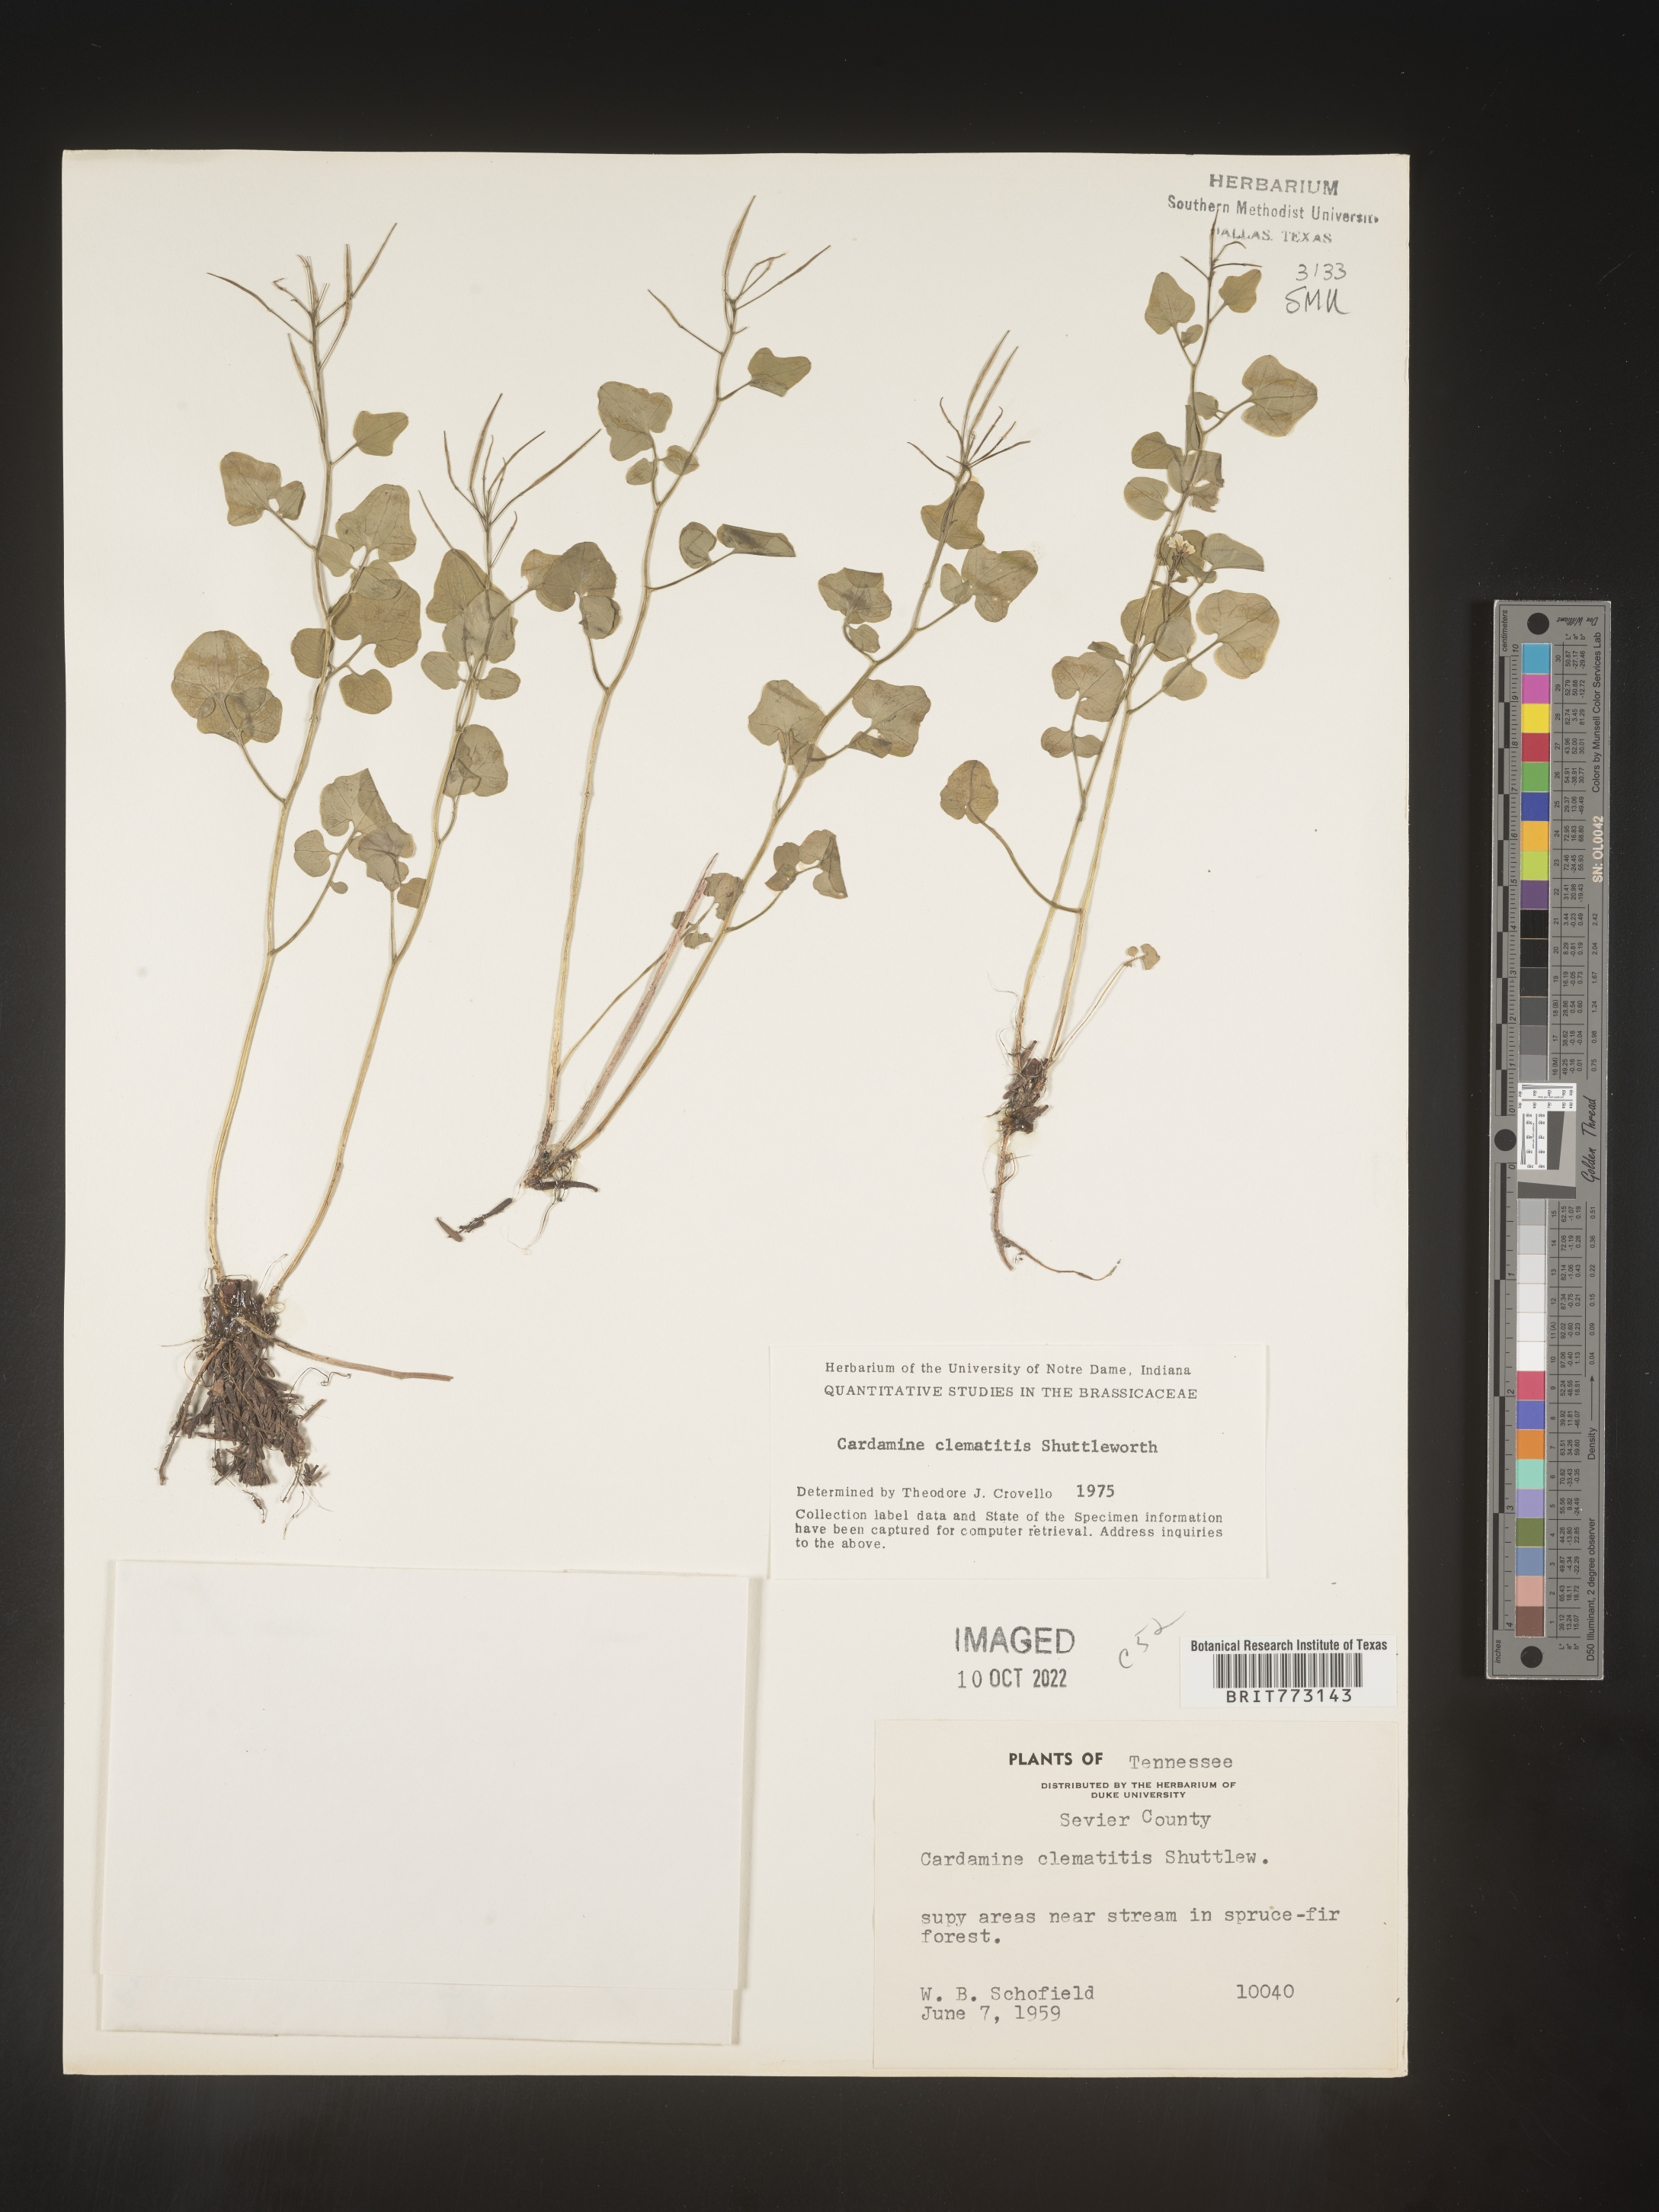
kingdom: Plantae
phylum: Tracheophyta
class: Magnoliopsida
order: Brassicales
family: Brassicaceae
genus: Cardamine
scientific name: Cardamine
